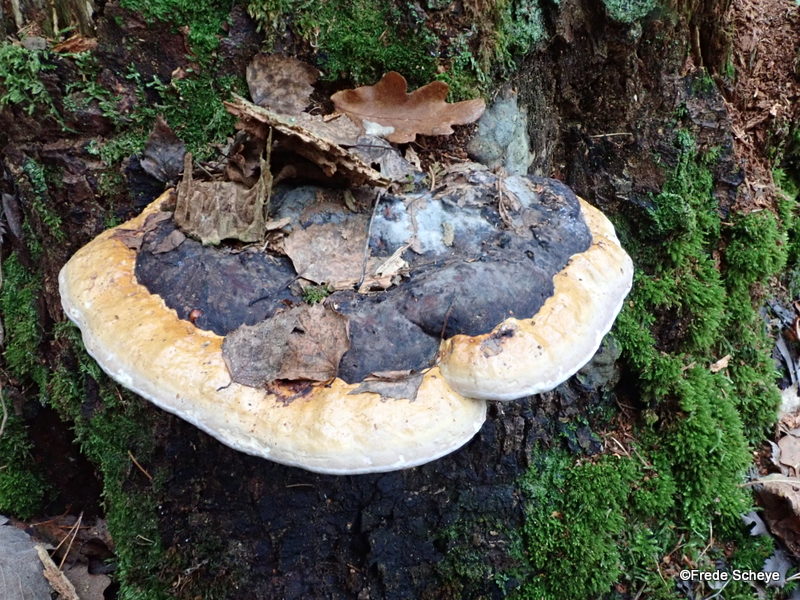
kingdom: Fungi
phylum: Basidiomycota
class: Agaricomycetes
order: Polyporales
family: Fomitopsidaceae
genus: Fomitopsis
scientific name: Fomitopsis pinicola
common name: randbæltet hovporesvamp
